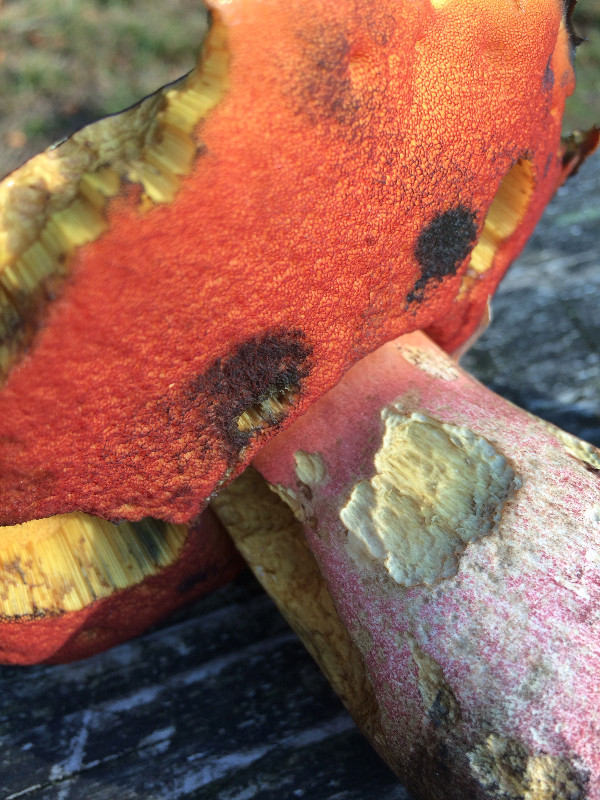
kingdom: Fungi
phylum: Basidiomycota
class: Agaricomycetes
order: Boletales
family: Boletaceae
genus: Neoboletus
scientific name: Neoboletus erythropus
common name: punktstokket indigorørhat
